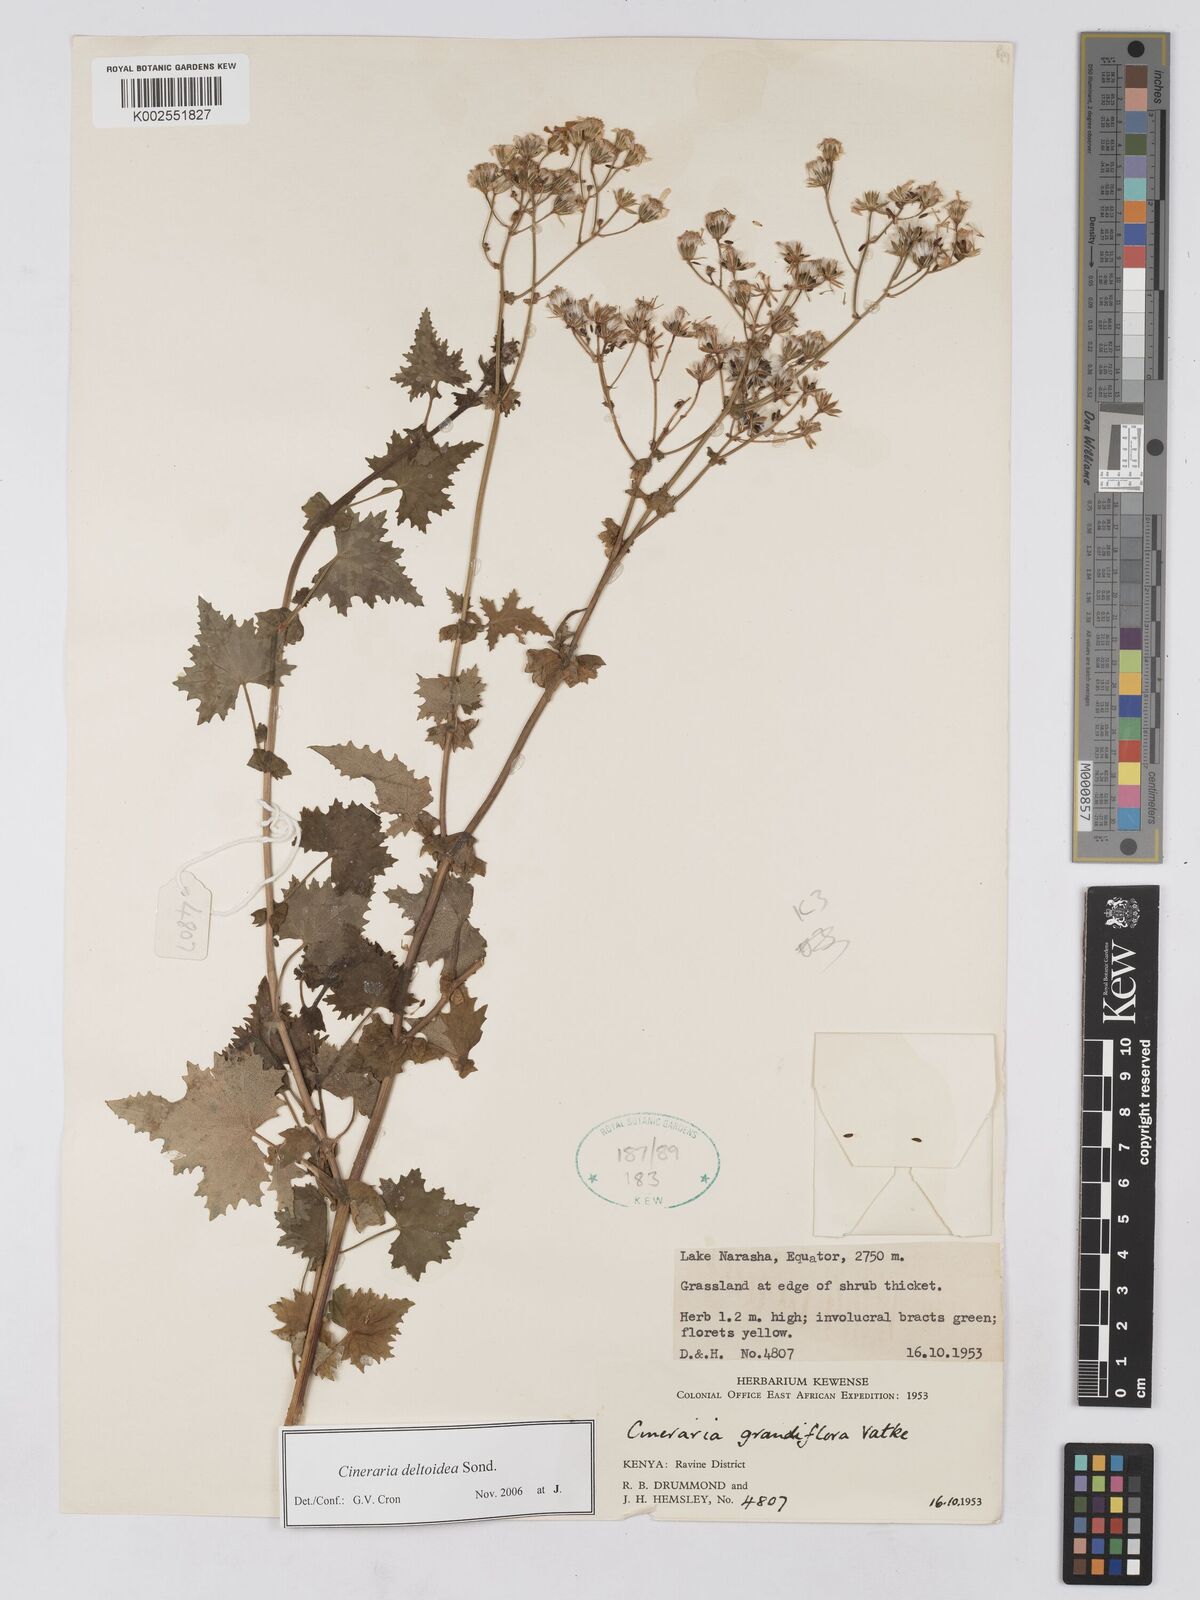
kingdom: Plantae
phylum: Tracheophyta
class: Magnoliopsida
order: Asterales
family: Asteraceae
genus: Cineraria
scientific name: Cineraria deltoidea
